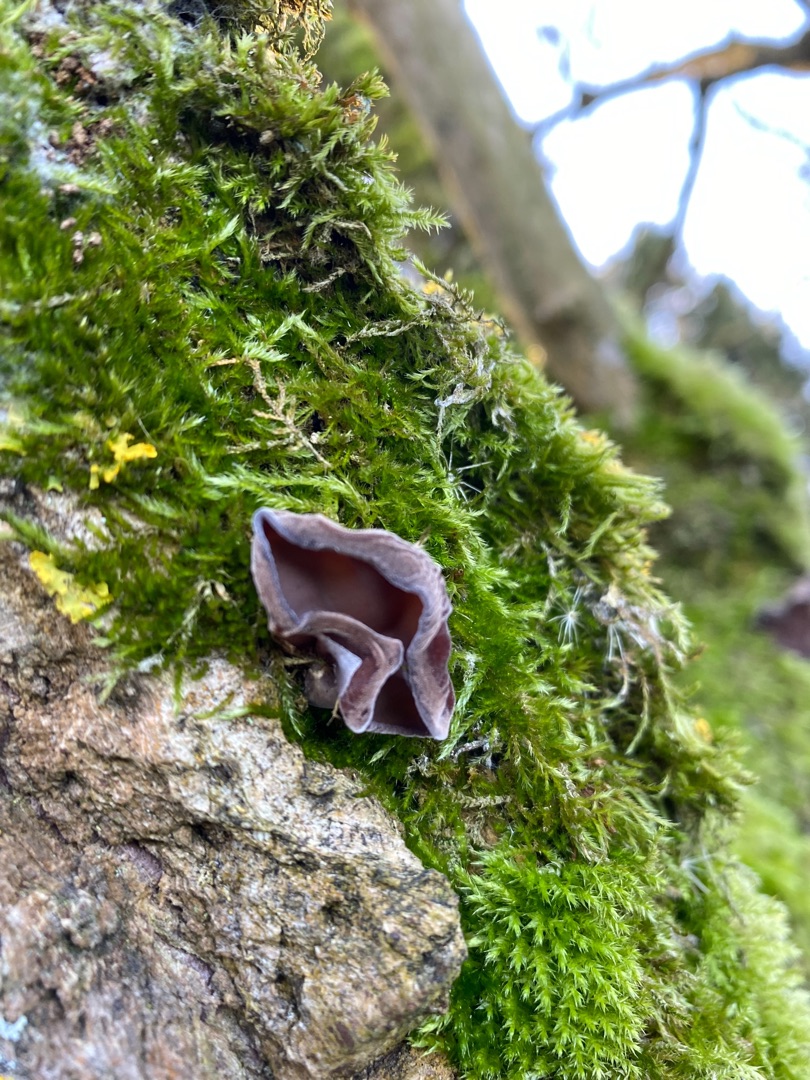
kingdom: Fungi
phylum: Basidiomycota
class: Agaricomycetes
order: Auriculariales
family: Auriculariaceae
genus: Auricularia
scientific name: Auricularia
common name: Judasøre
